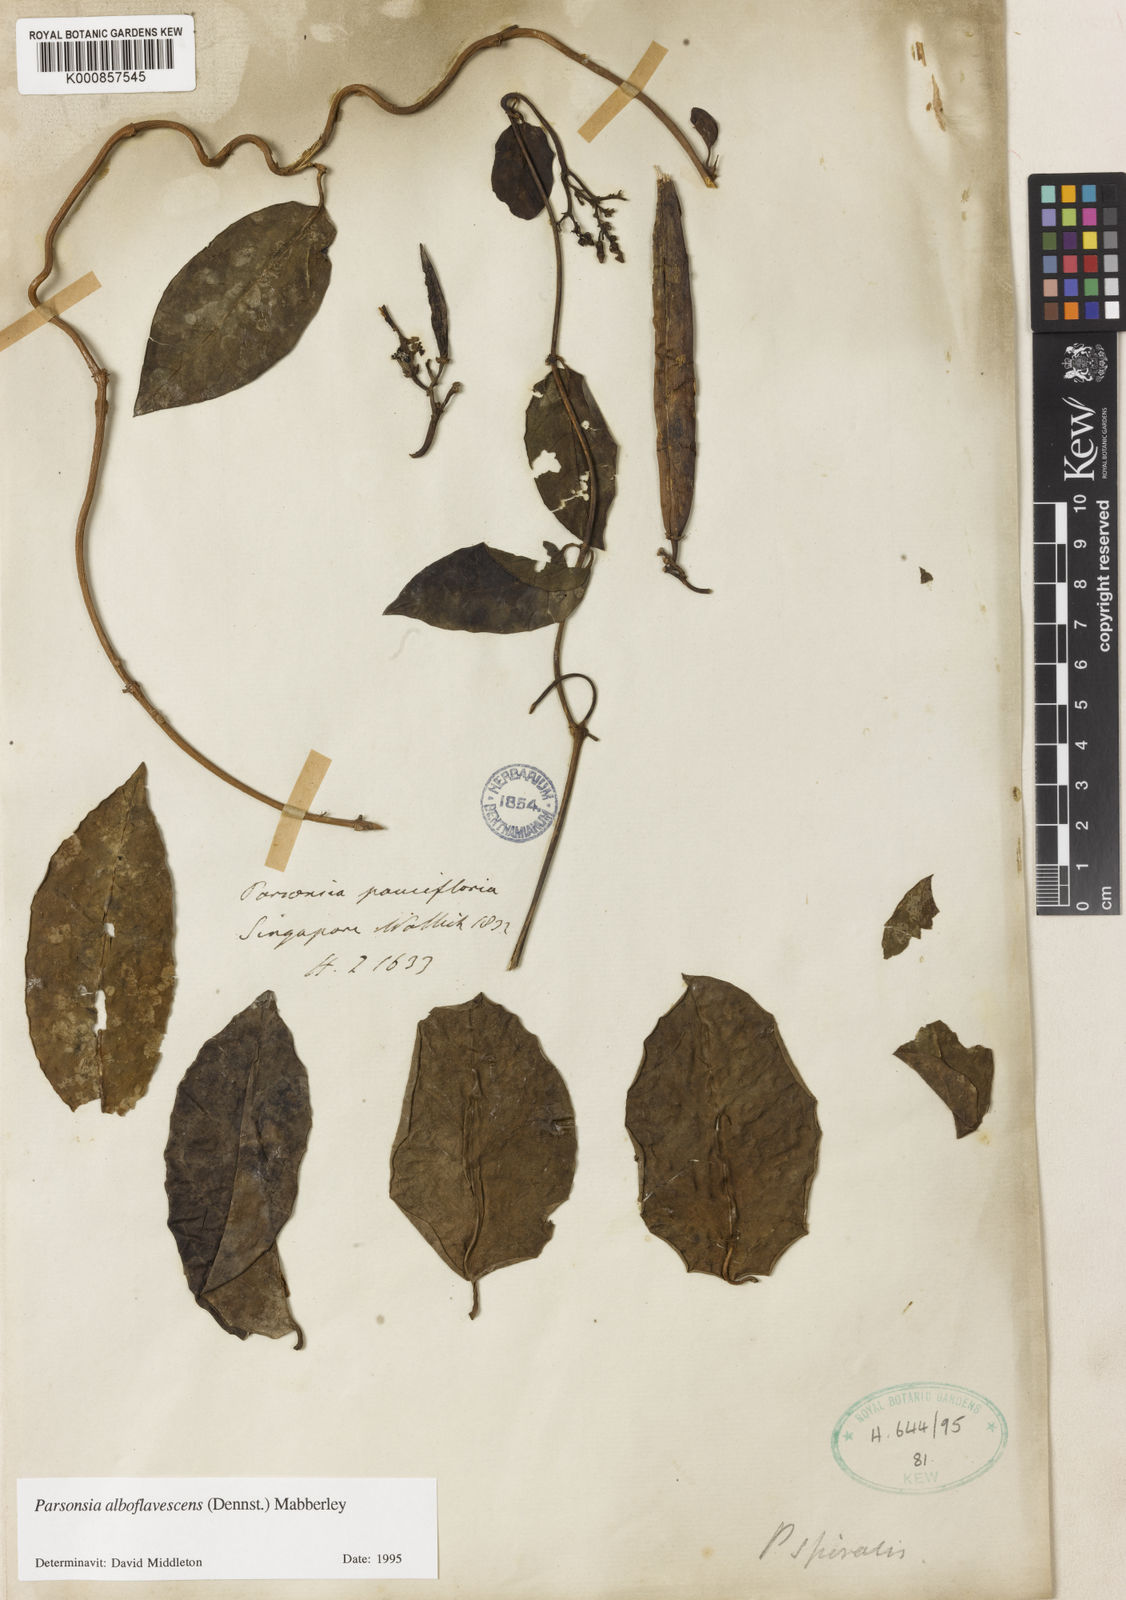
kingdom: Plantae
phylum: Tracheophyta
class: Magnoliopsida
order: Gentianales
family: Apocynaceae
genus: Parsonsia
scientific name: Parsonsia alboflavescens
